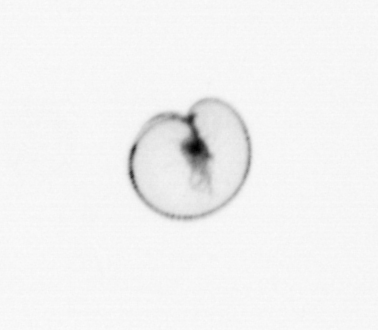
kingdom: Chromista
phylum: Myzozoa
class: Dinophyceae
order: Noctilucales
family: Noctilucaceae
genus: Noctiluca
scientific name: Noctiluca scintillans
